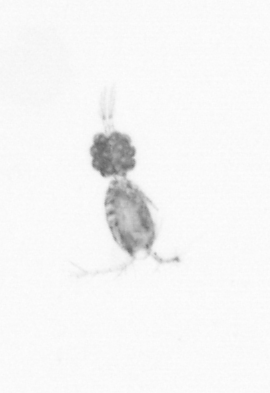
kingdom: Animalia
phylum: Arthropoda
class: Copepoda
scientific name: Copepoda
